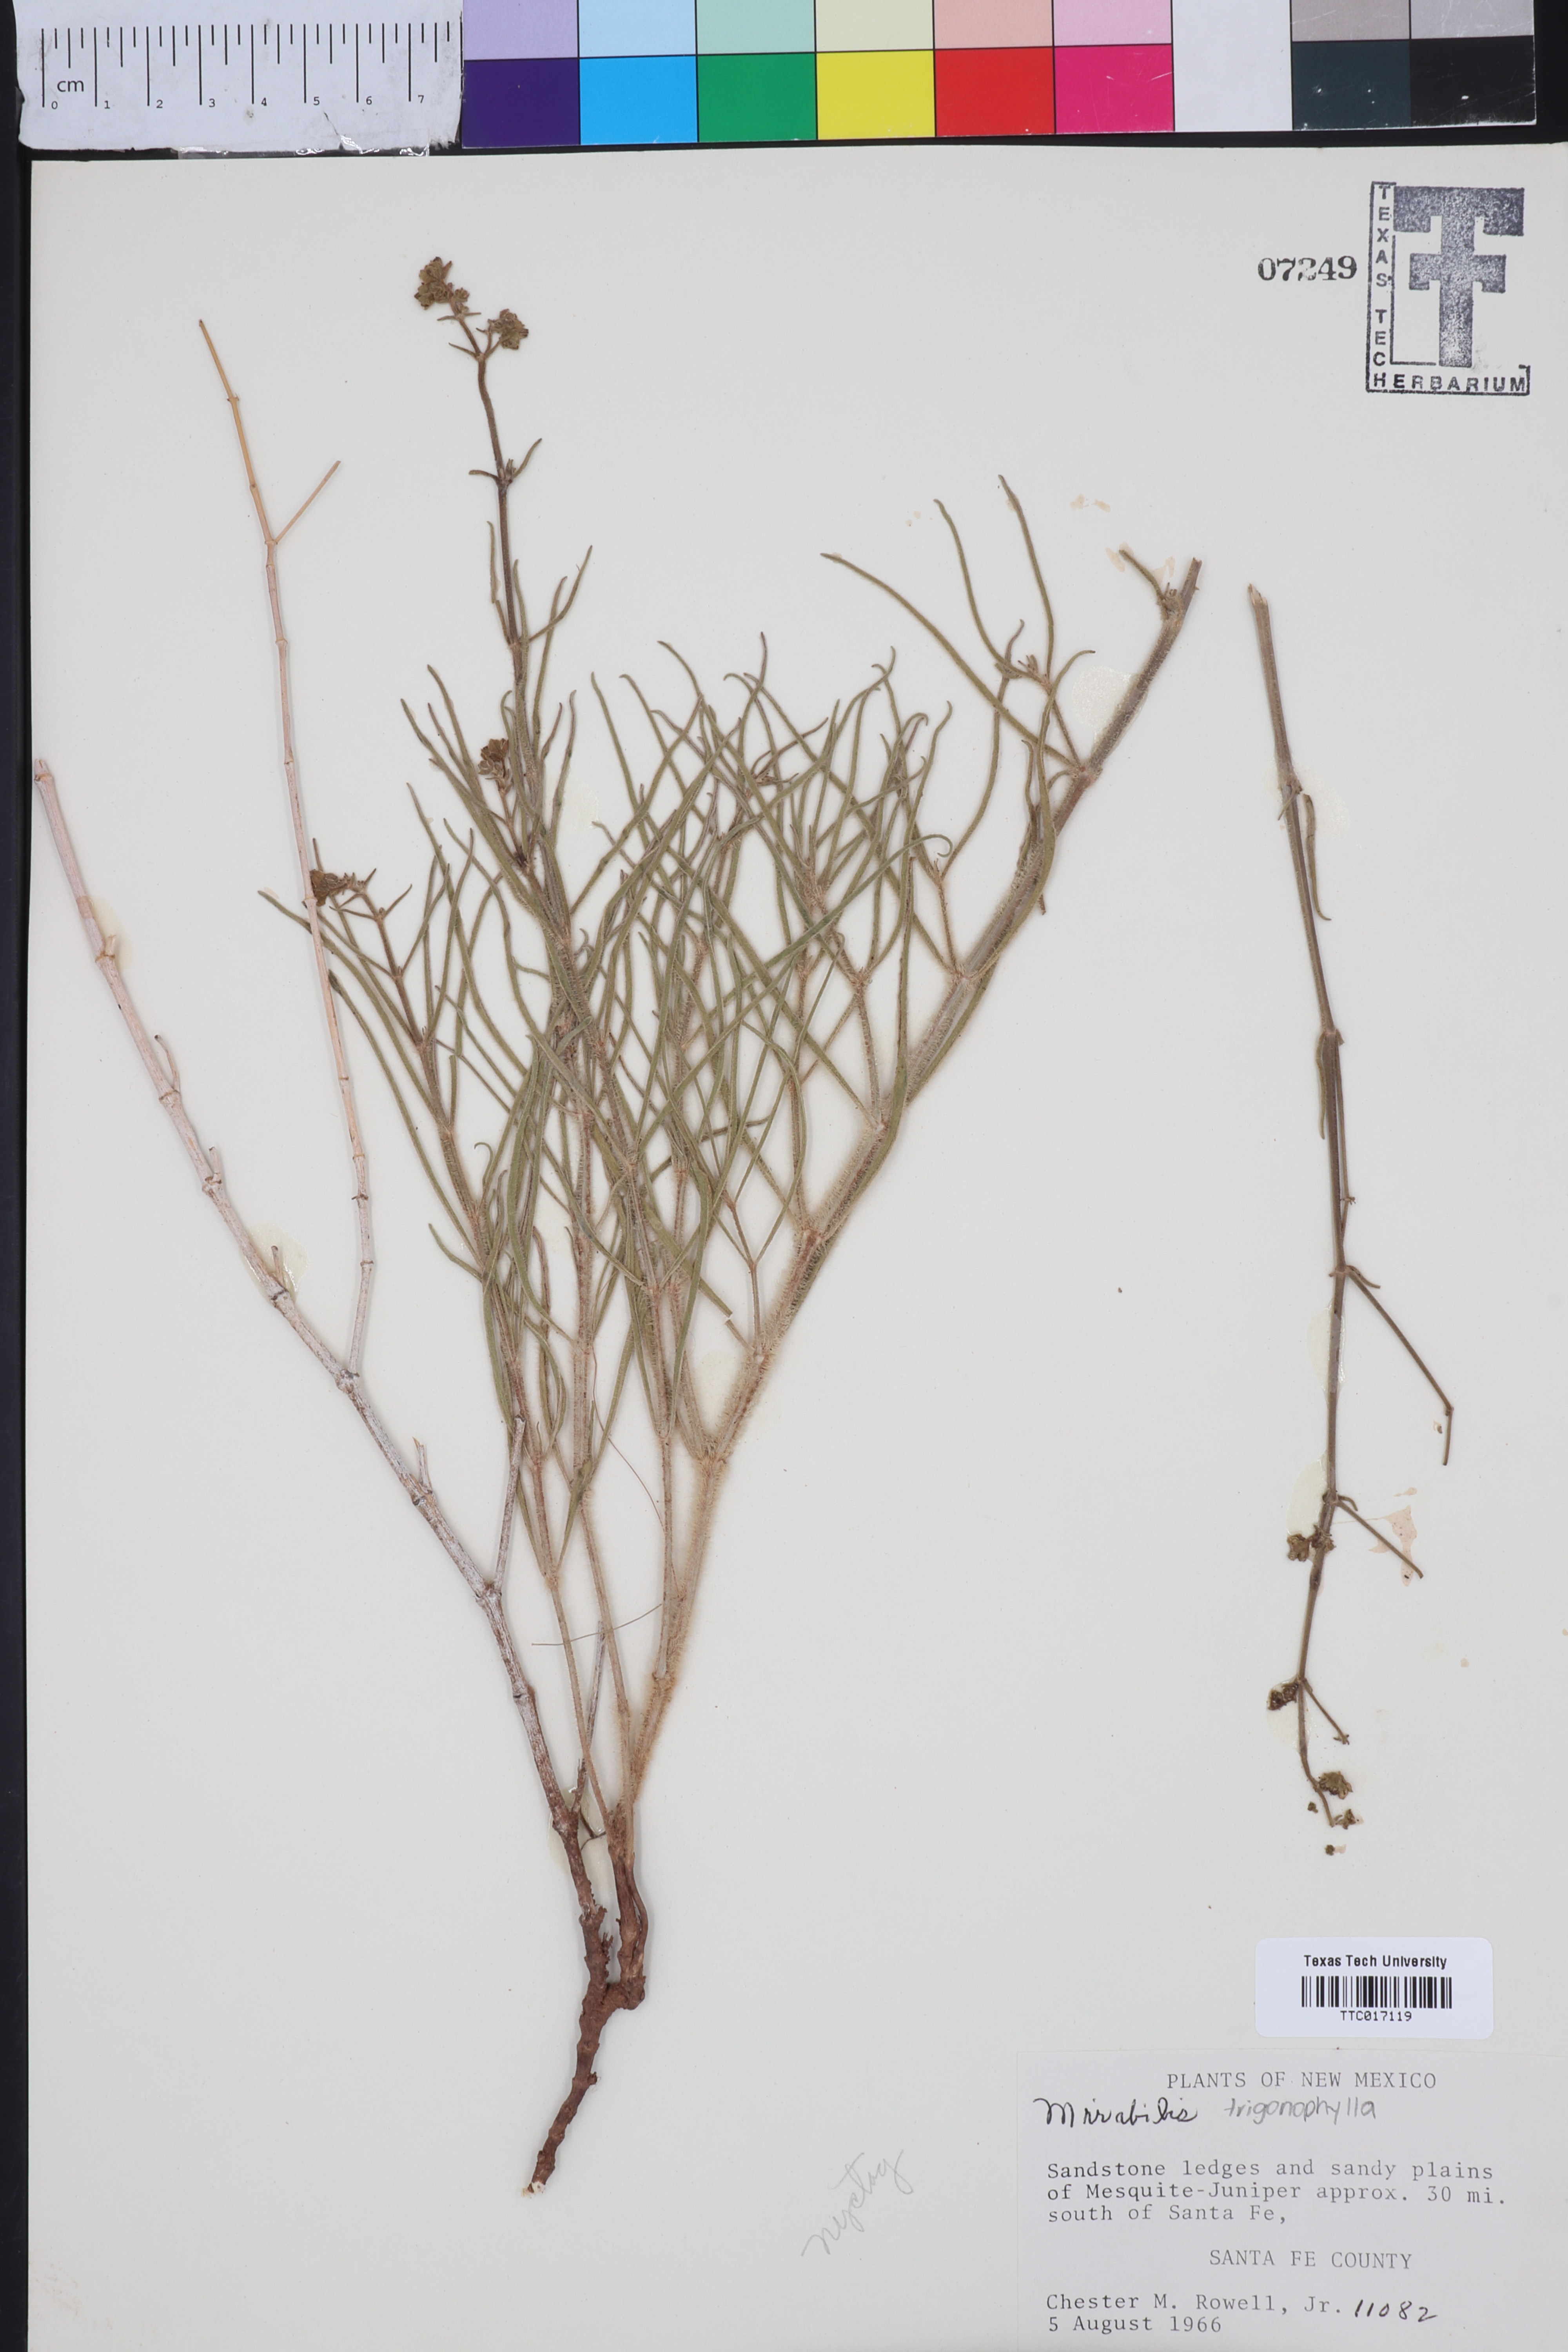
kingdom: Plantae
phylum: Tracheophyta
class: Magnoliopsida
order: Caryophyllales
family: Nyctaginaceae
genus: Mirabilis
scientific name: Mirabilis
